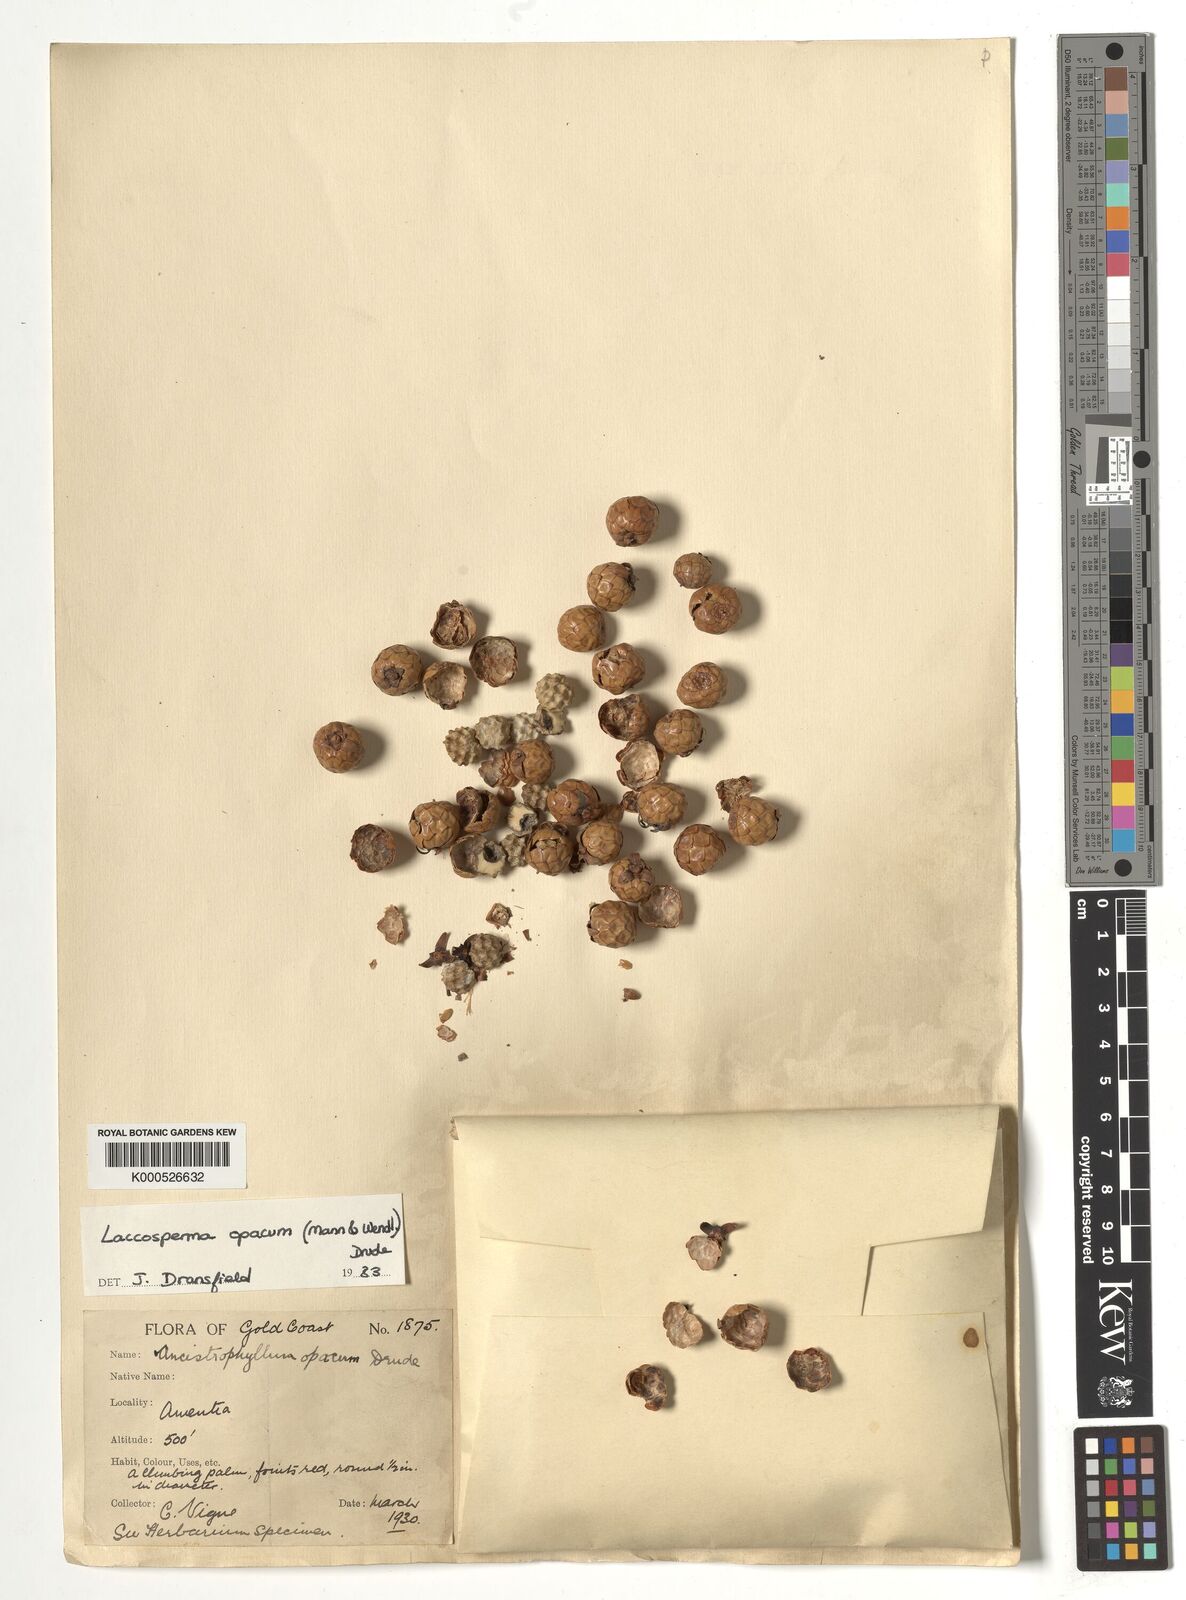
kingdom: Plantae
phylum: Tracheophyta
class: Liliopsida
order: Arecales
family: Arecaceae
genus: Laccosperma
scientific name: Laccosperma opacum
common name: Rattan
